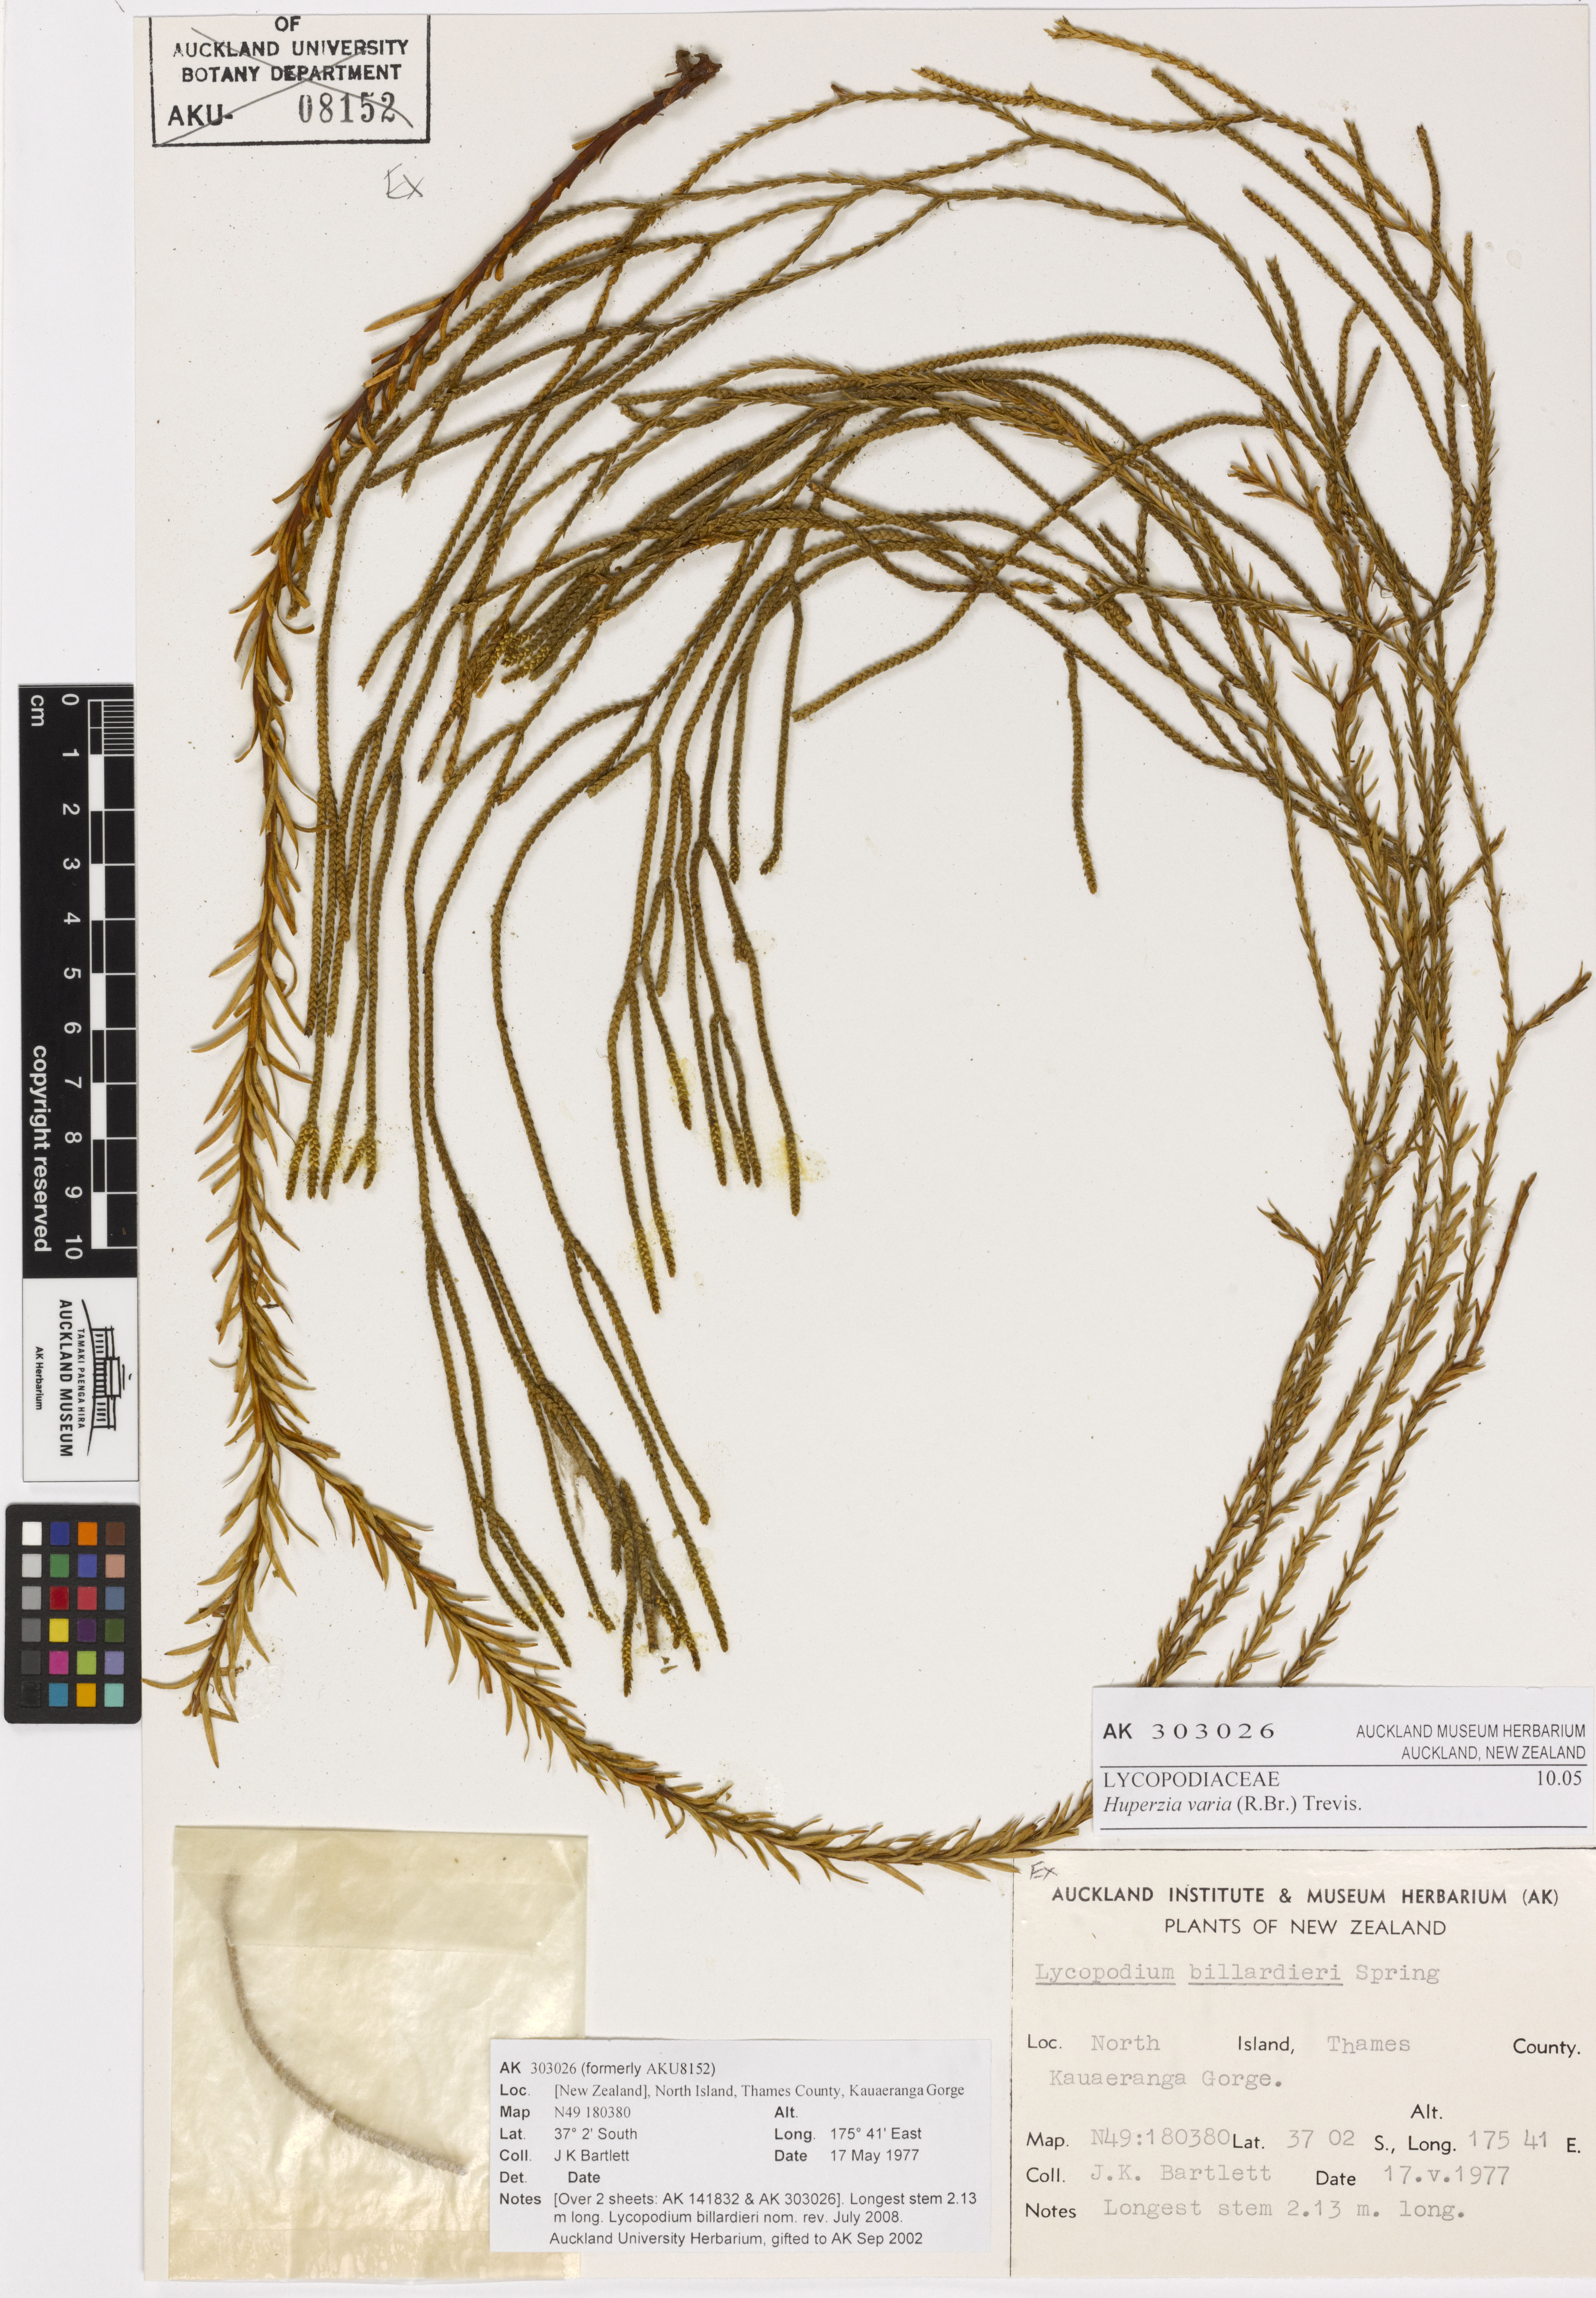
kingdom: Plantae
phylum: Tracheophyta
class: Lycopodiopsida
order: Lycopodiales
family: Lycopodiaceae
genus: Phlegmariurus
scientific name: Phlegmariurus billardierei
